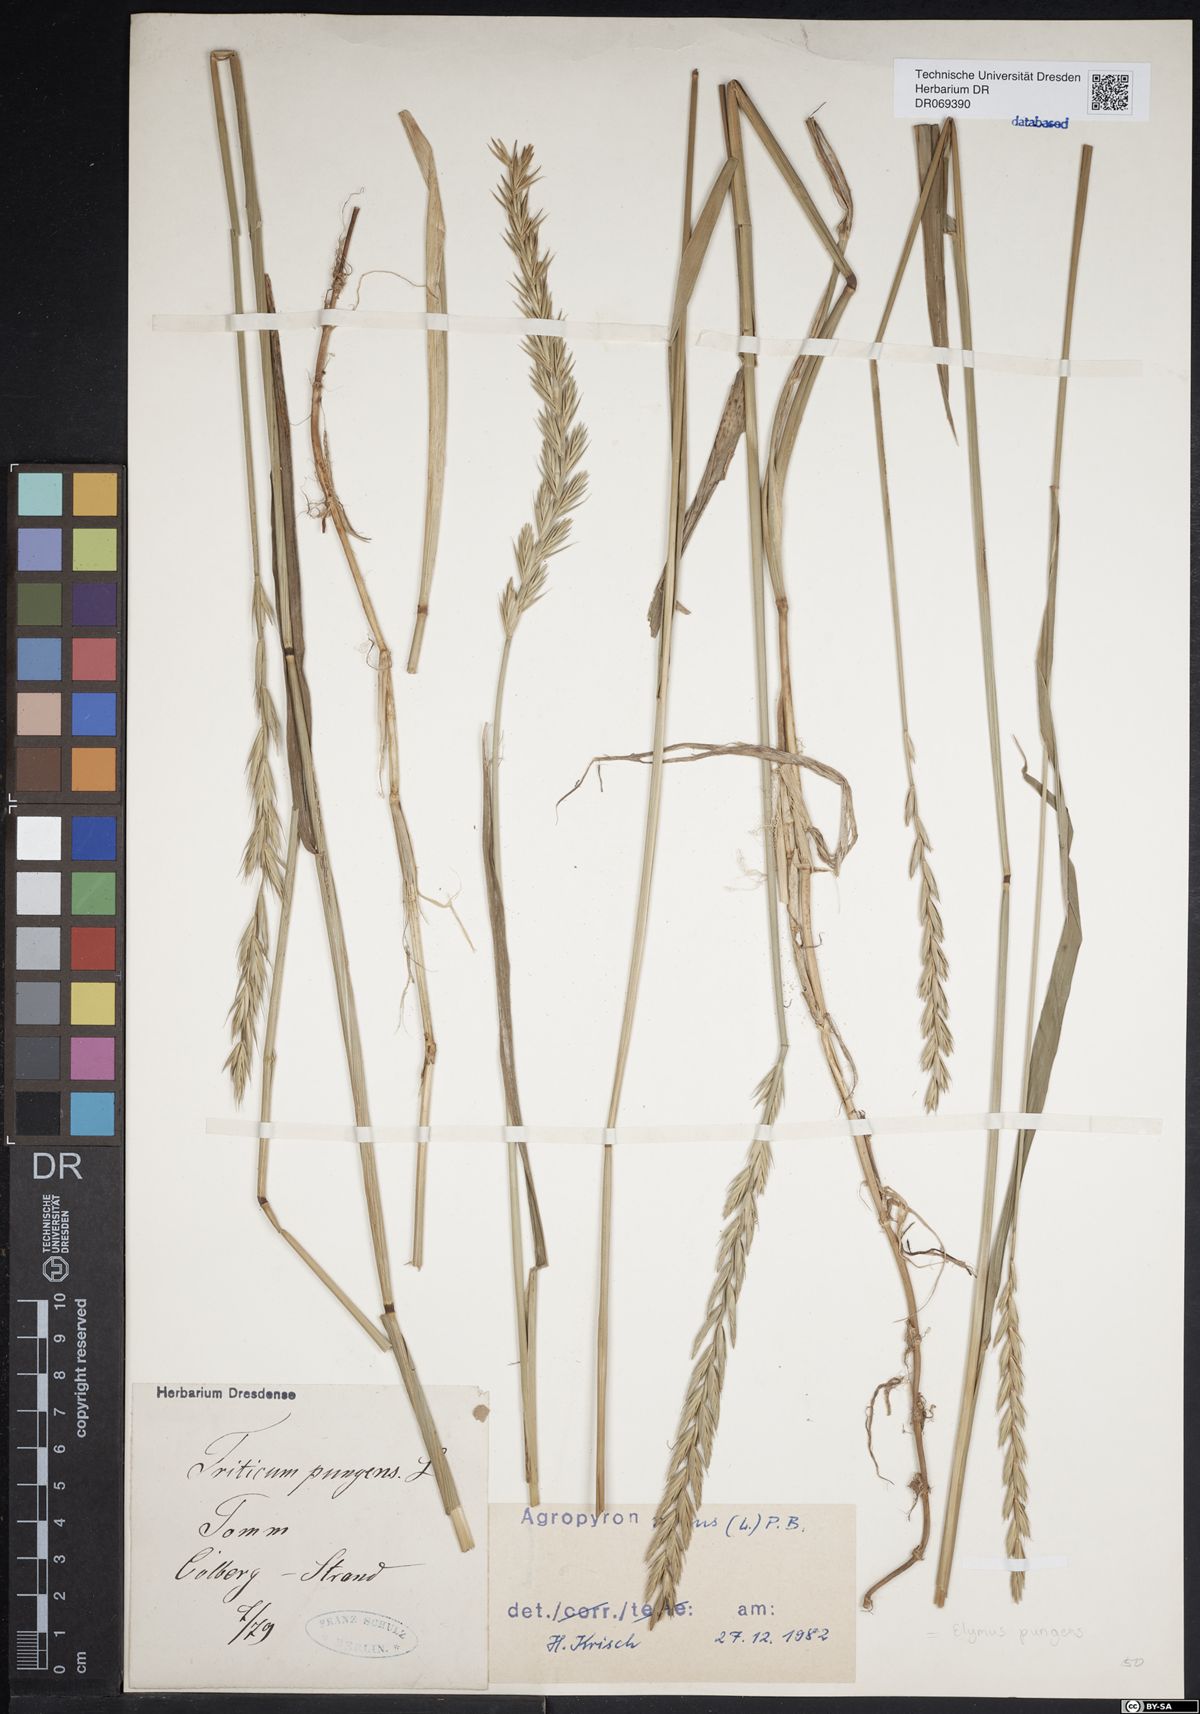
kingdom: Plantae
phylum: Tracheophyta
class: Liliopsida
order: Poales
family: Poaceae
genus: Elymus
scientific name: Elymus pungens
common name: Sea couch
